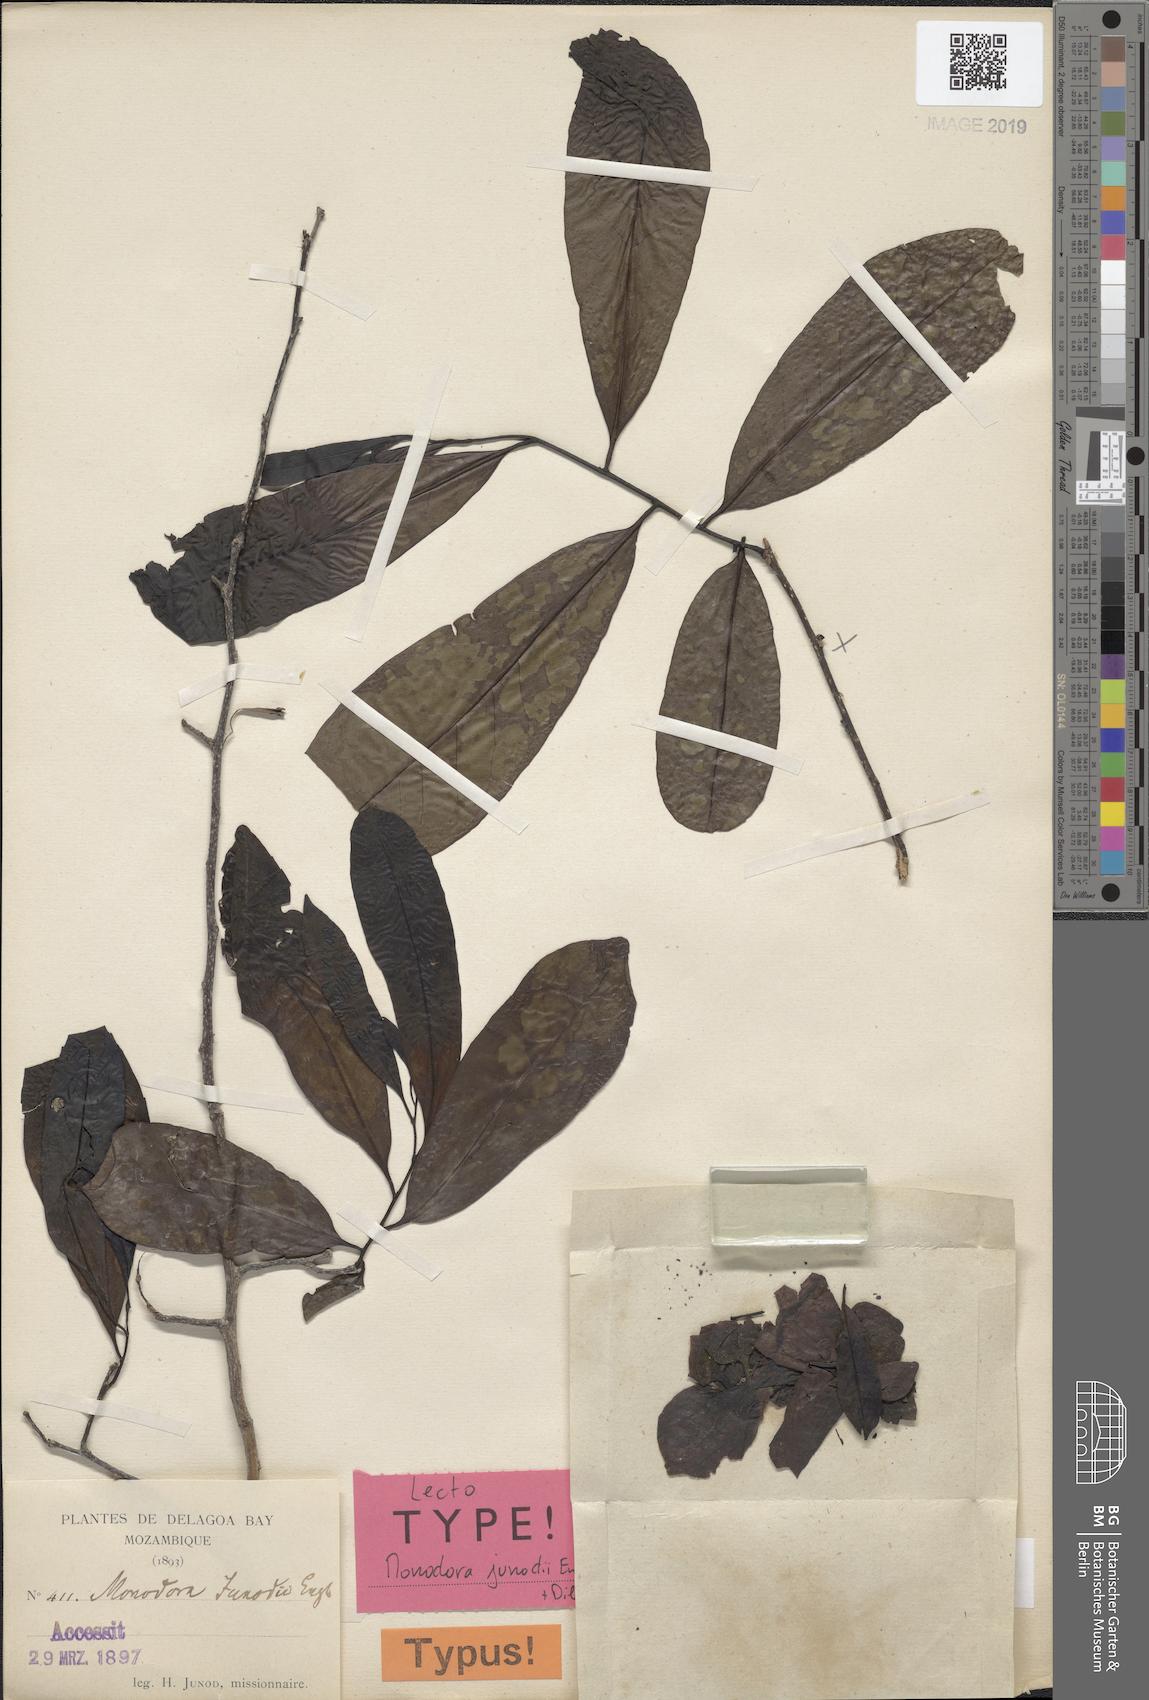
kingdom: Plantae
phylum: Tracheophyta
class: Magnoliopsida
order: Magnoliales
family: Annonaceae
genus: Monodora
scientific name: Monodora junodii
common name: Green-apple
